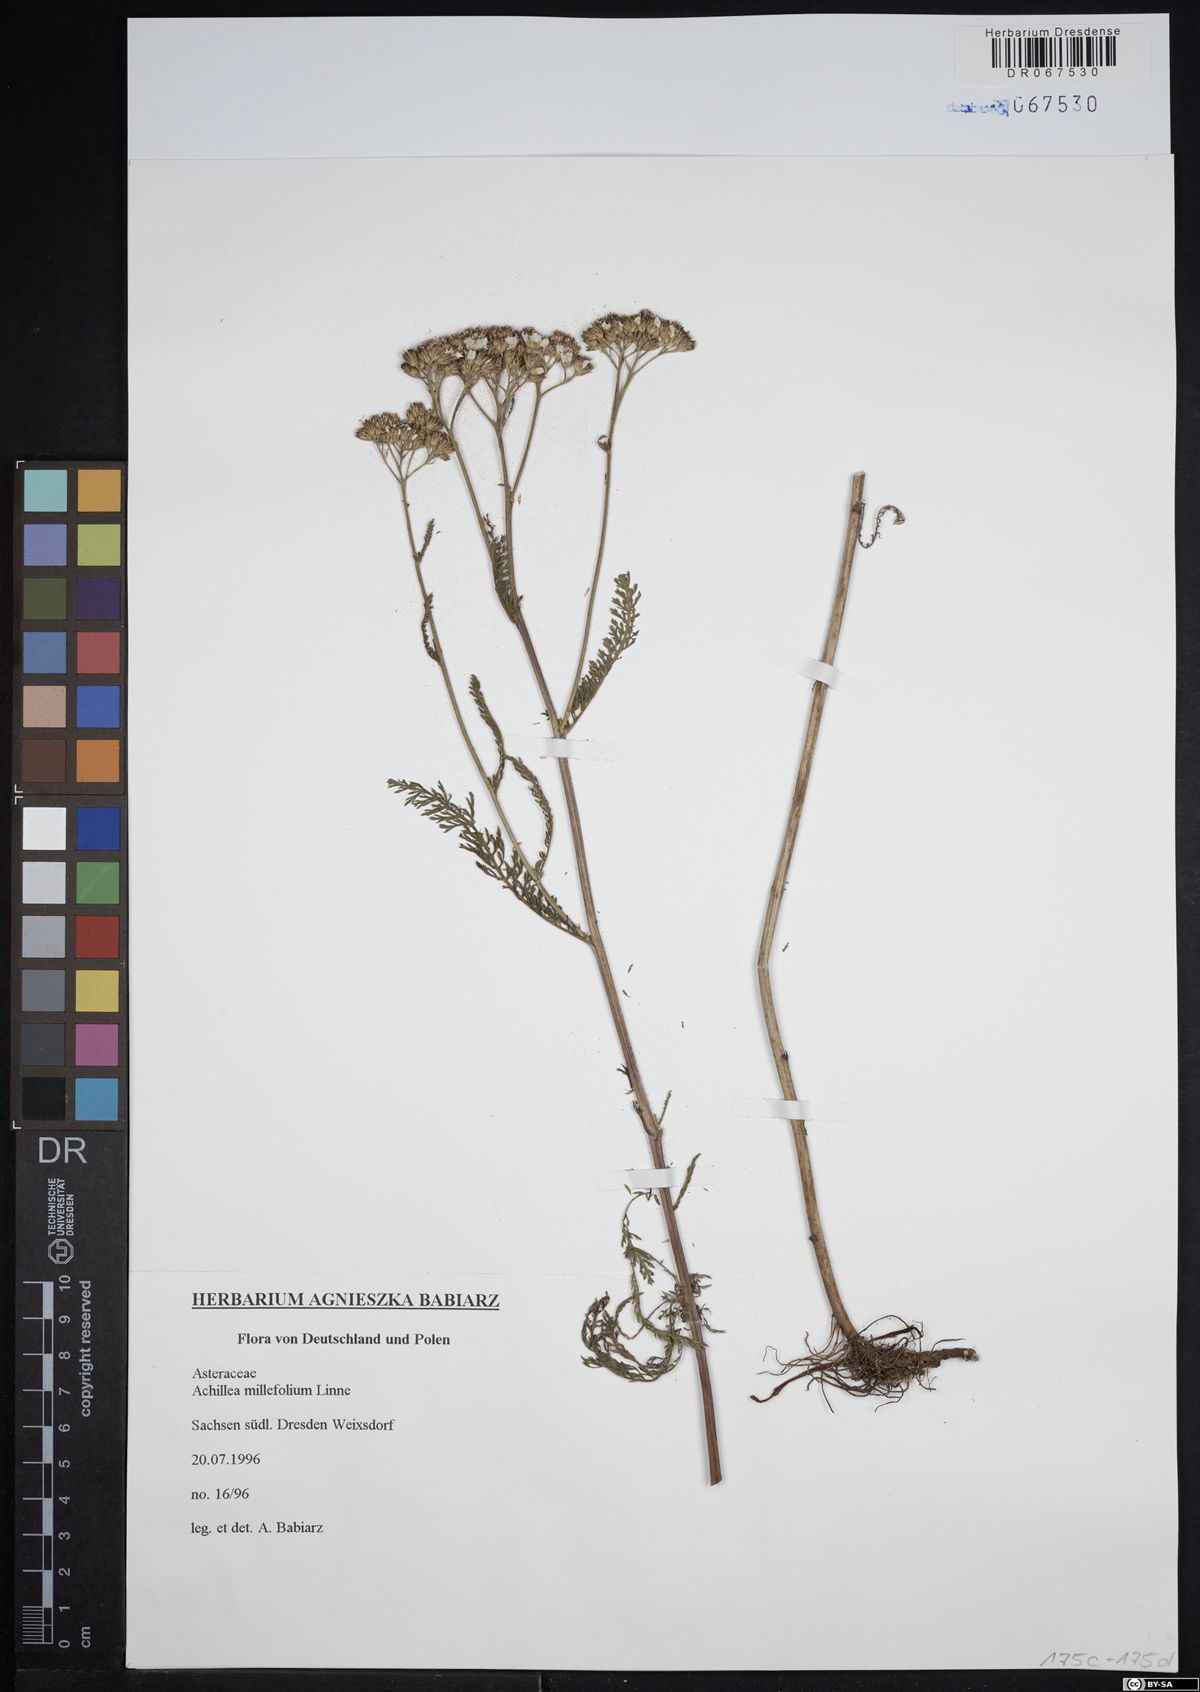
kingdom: Plantae
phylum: Tracheophyta
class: Magnoliopsida
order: Asterales
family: Asteraceae
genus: Achillea
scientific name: Achillea millefolium
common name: Yarrow
